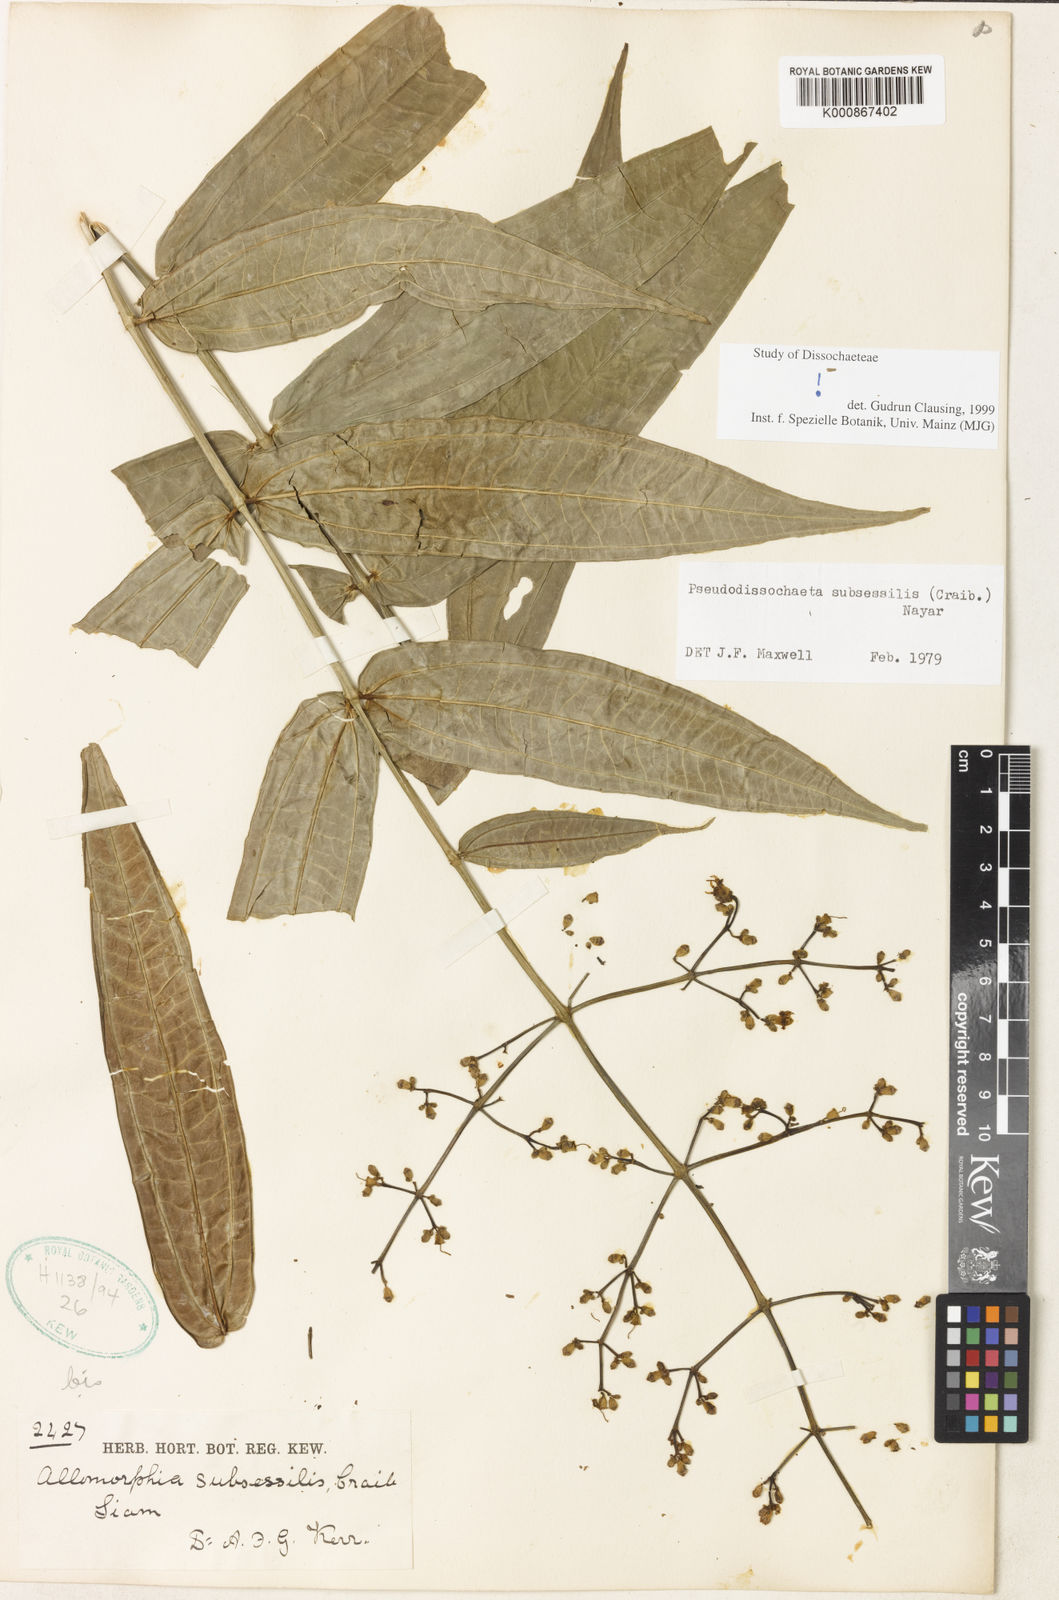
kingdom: Plantae
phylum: Tracheophyta
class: Magnoliopsida
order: Myrtales
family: Melastomataceae
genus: Pseudodissochaeta
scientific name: Pseudodissochaeta subsessilis
